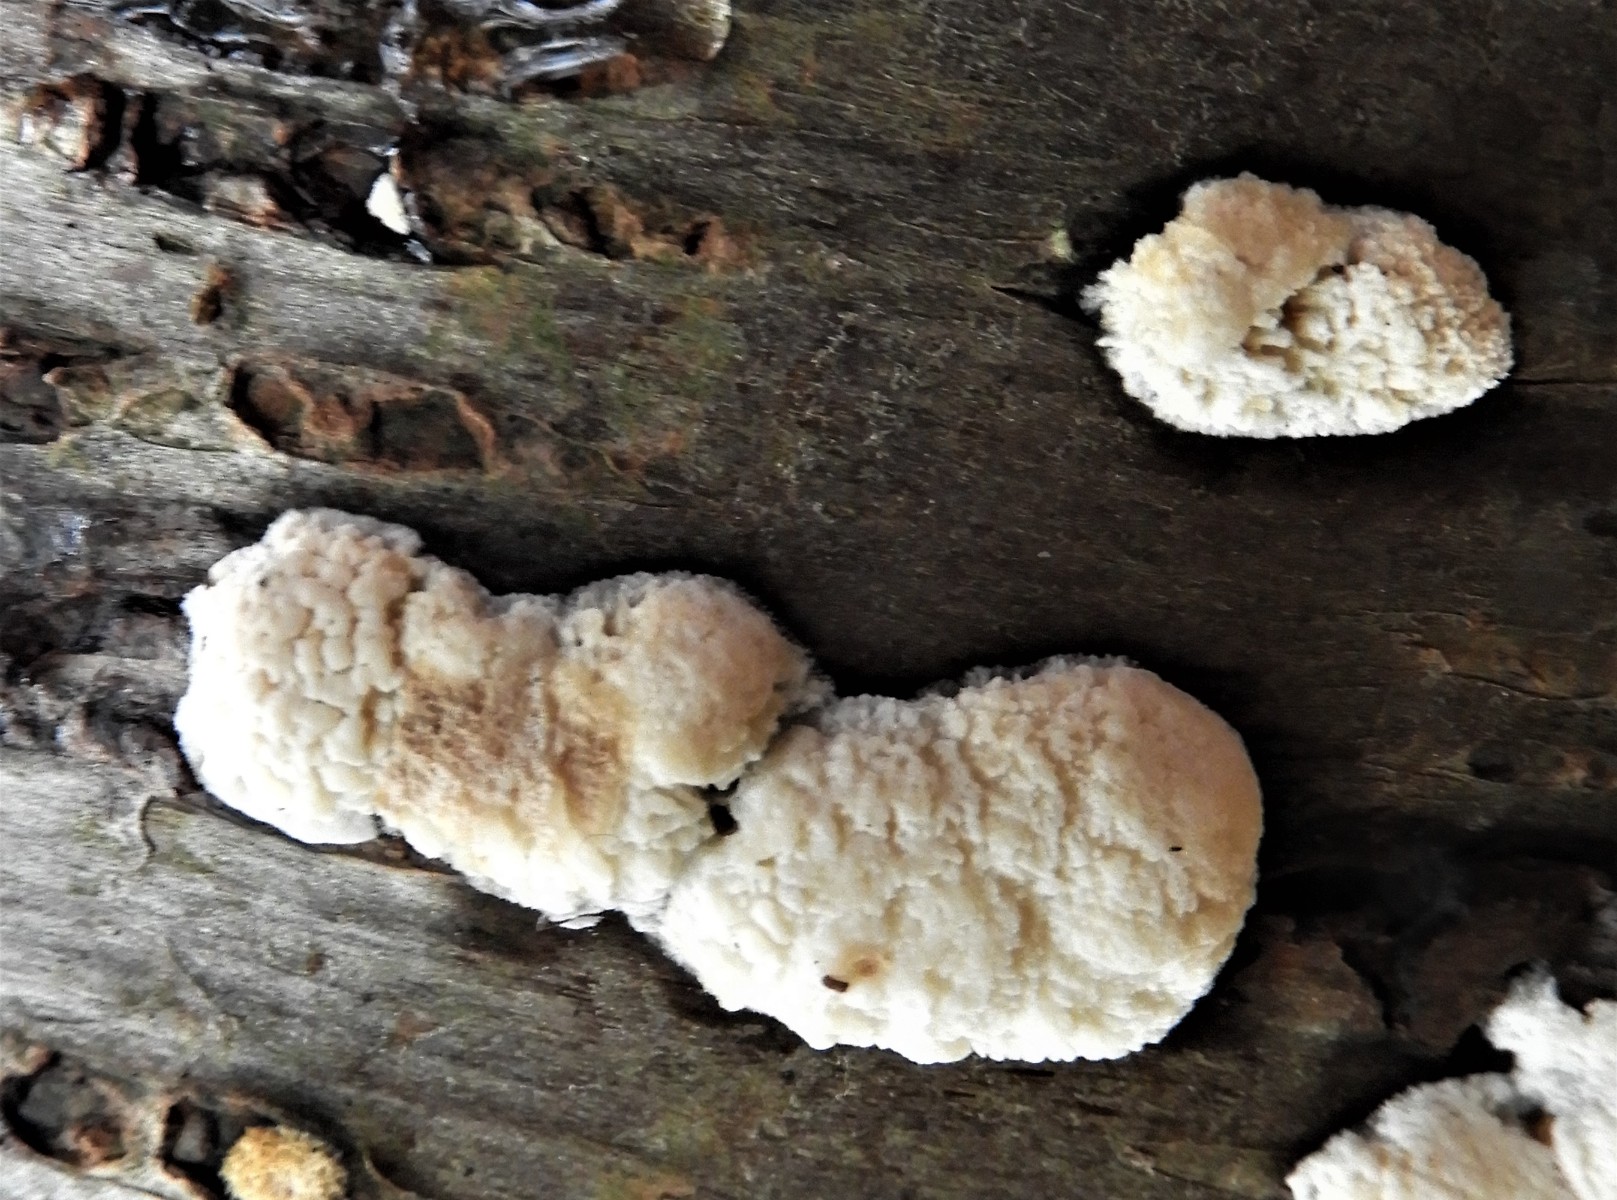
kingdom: Fungi
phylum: Basidiomycota
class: Agaricomycetes
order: Hymenochaetales
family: Schizoporaceae
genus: Xylodon
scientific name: Xylodon radula
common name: grovtandet kalkskind
